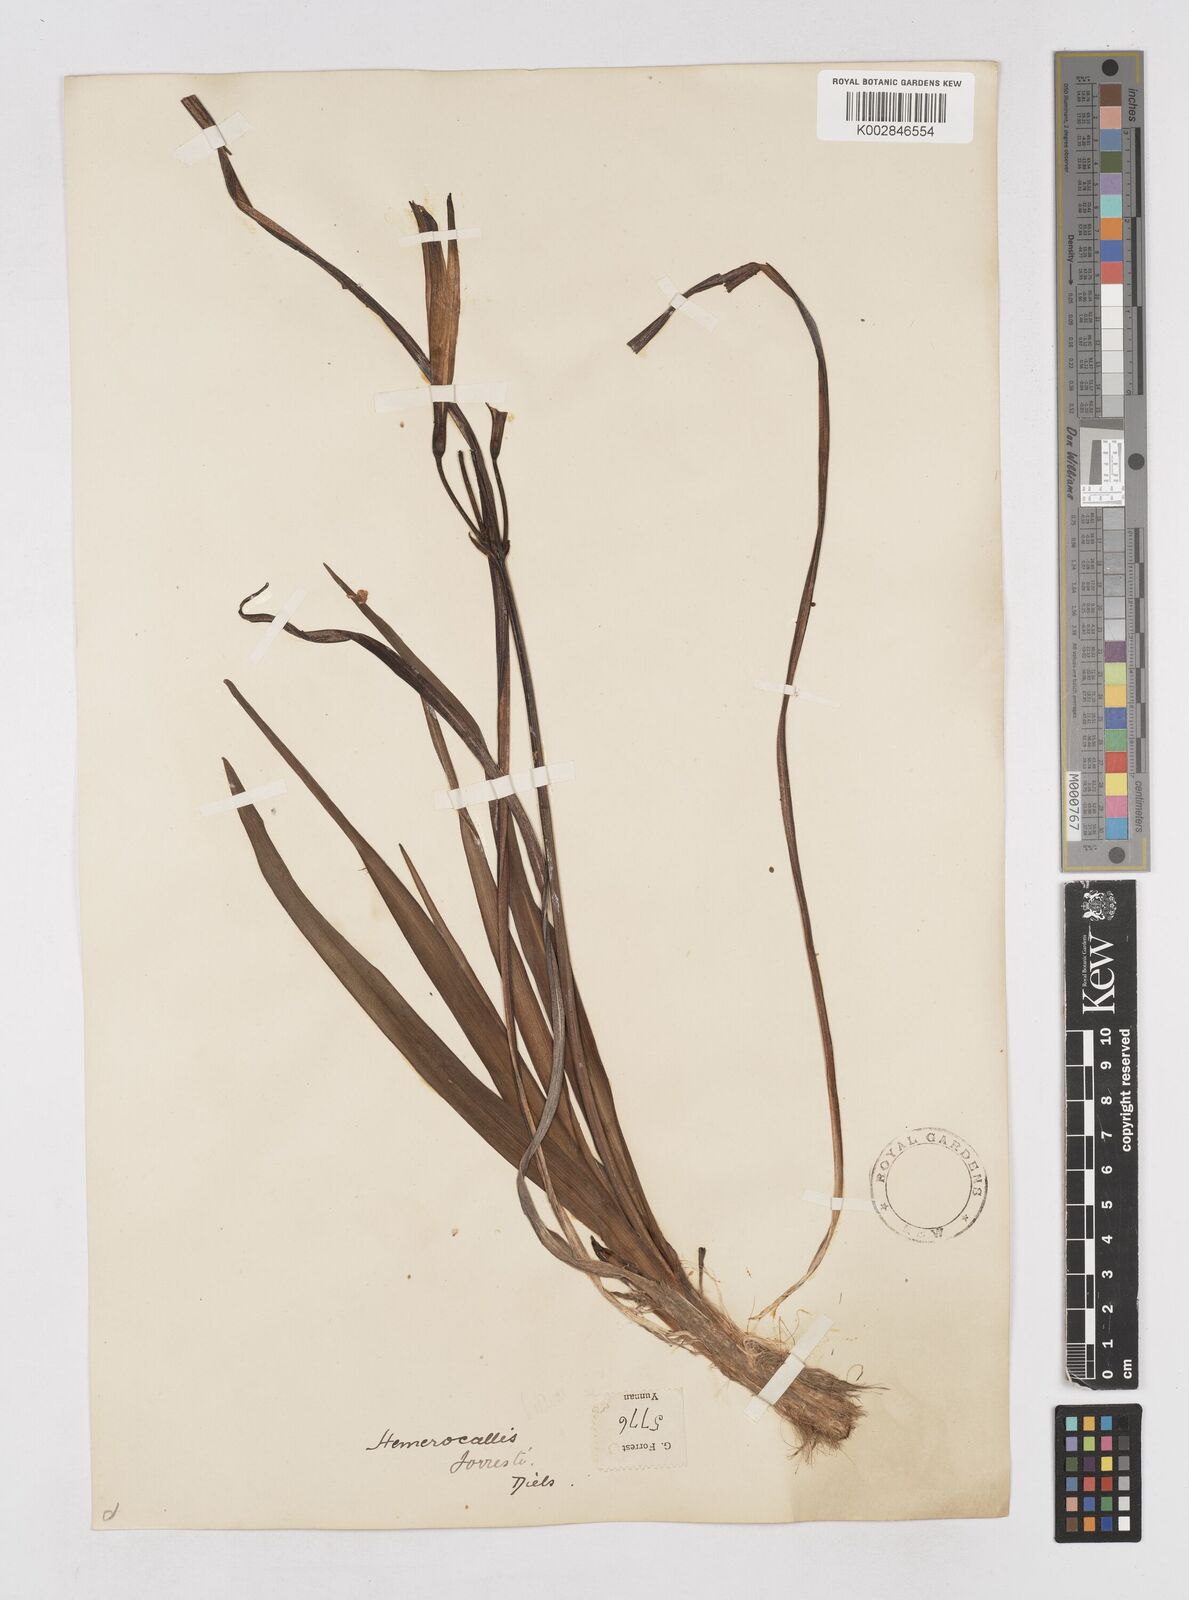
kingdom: Plantae
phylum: Tracheophyta
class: Liliopsida
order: Asparagales
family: Asphodelaceae
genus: Hemerocallis
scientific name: Hemerocallis forrestii
